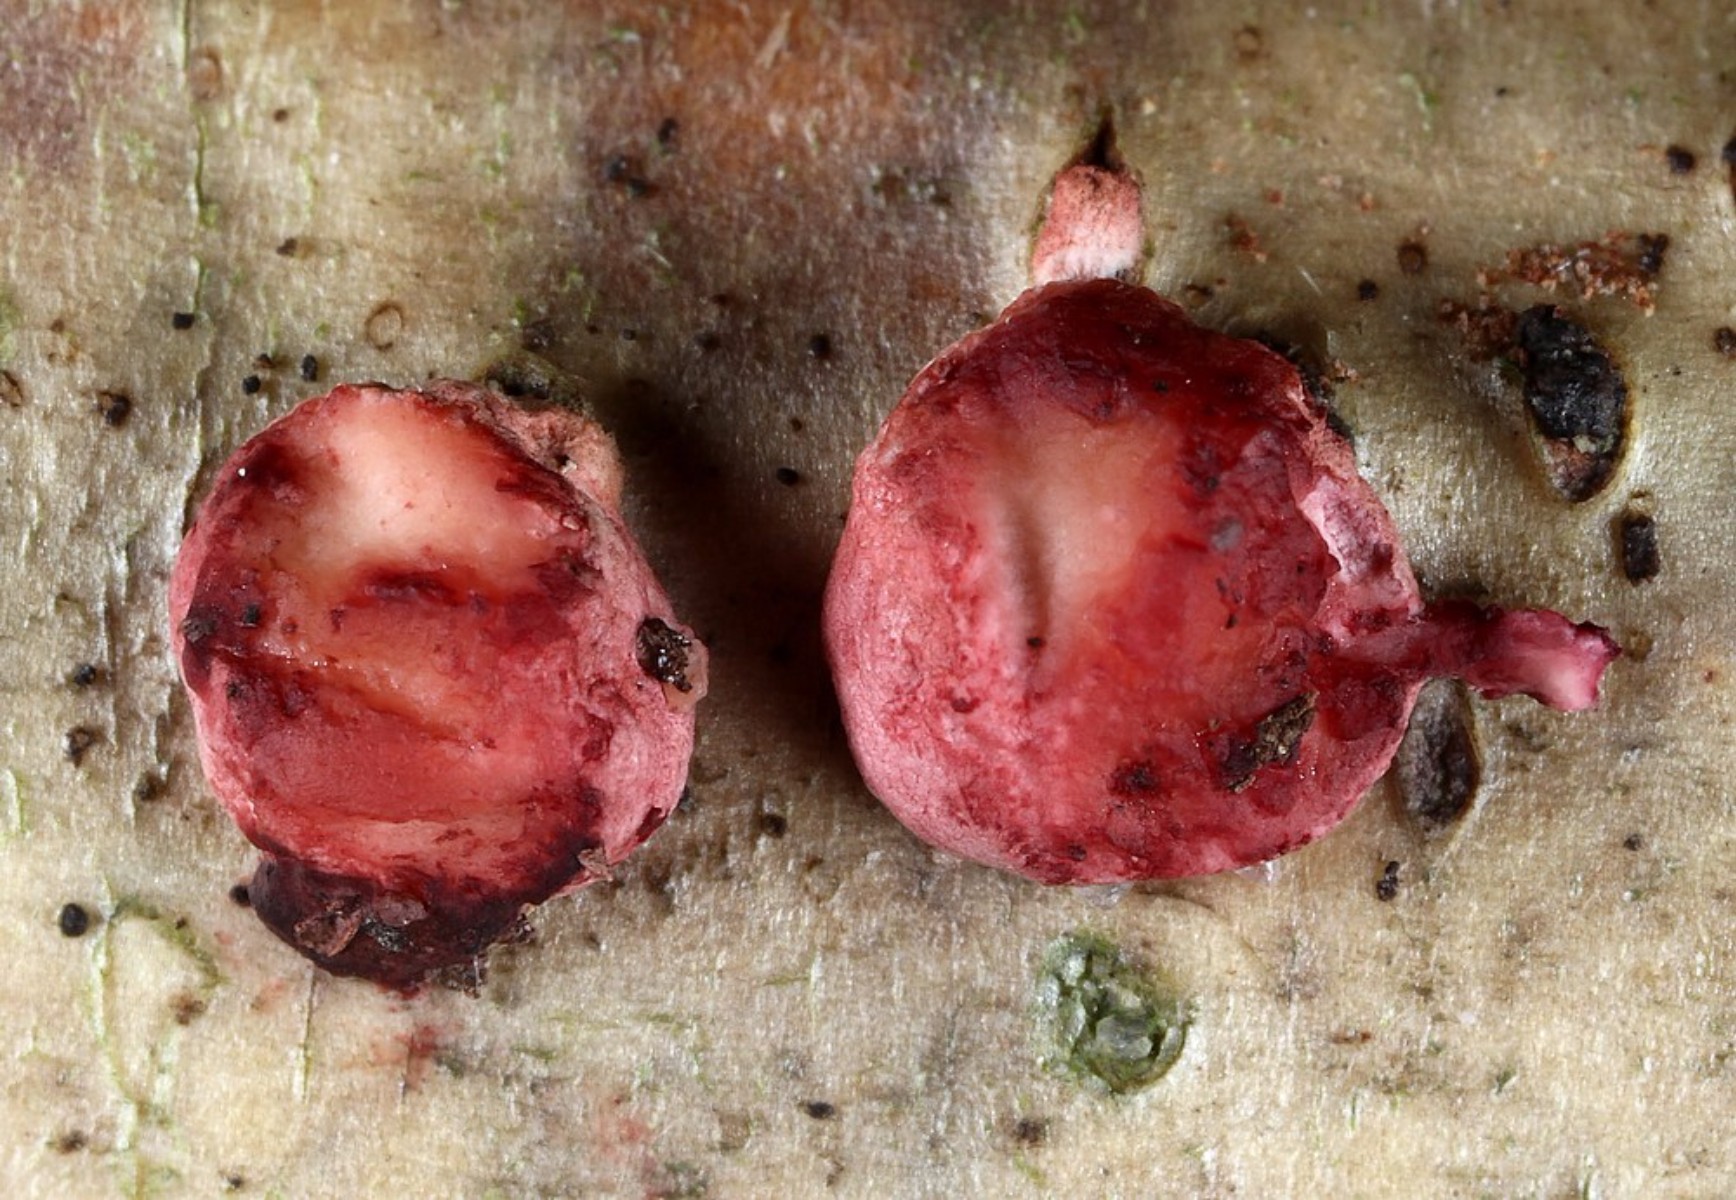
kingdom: Fungi
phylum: Ascomycota
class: Sordariomycetes
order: Hypocreales
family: Hypocreaceae
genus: Trichoderma
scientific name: Trichoderma
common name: kødkerne
